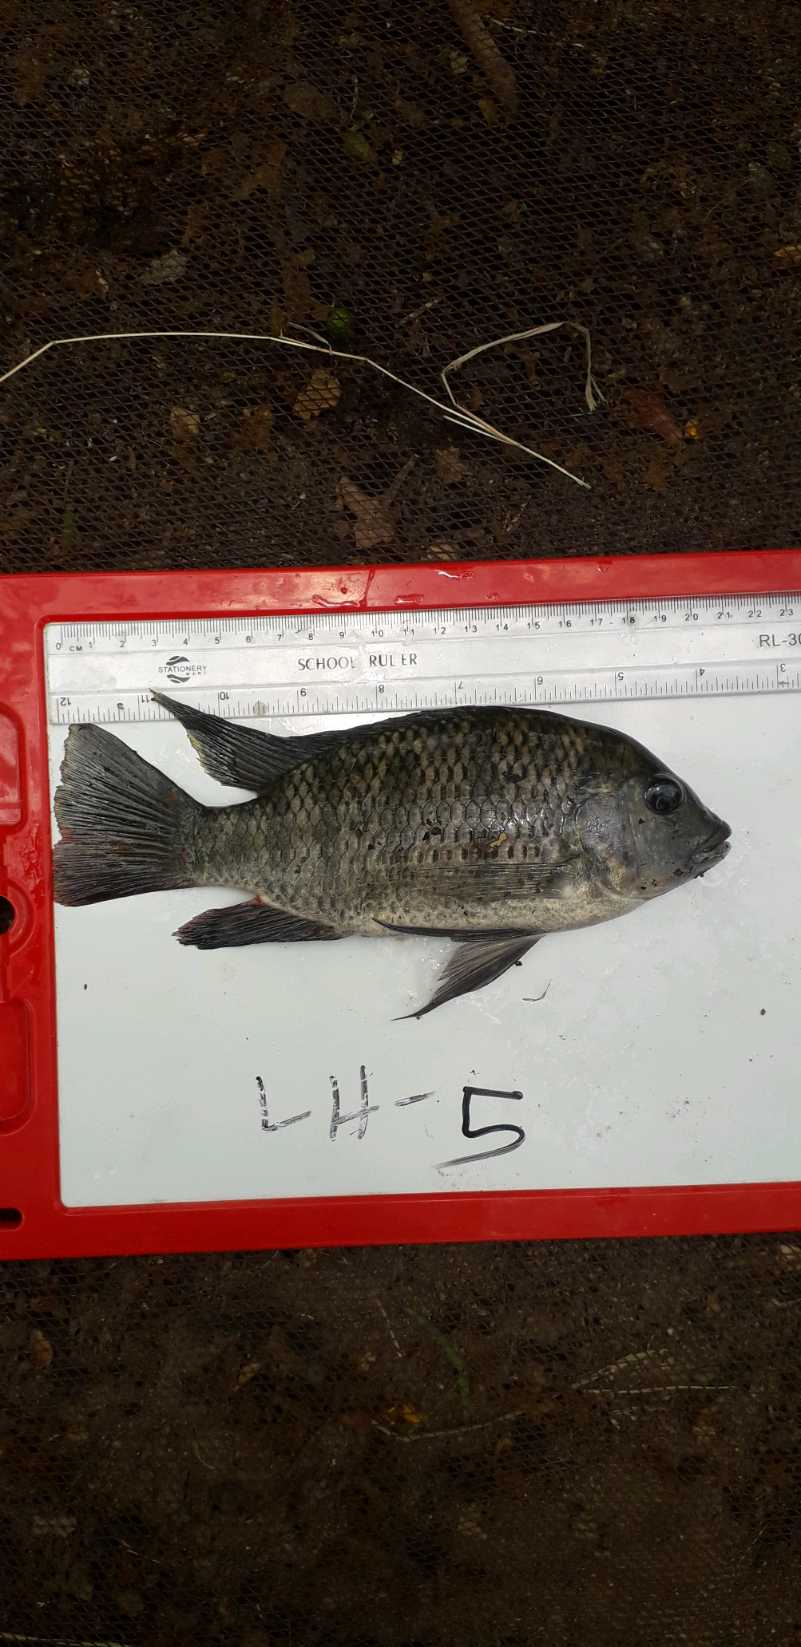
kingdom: Animalia
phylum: Chordata
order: Perciformes
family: Cichlidae
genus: Coptodon
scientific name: Coptodon rendalli
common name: Redbreast tilapia
